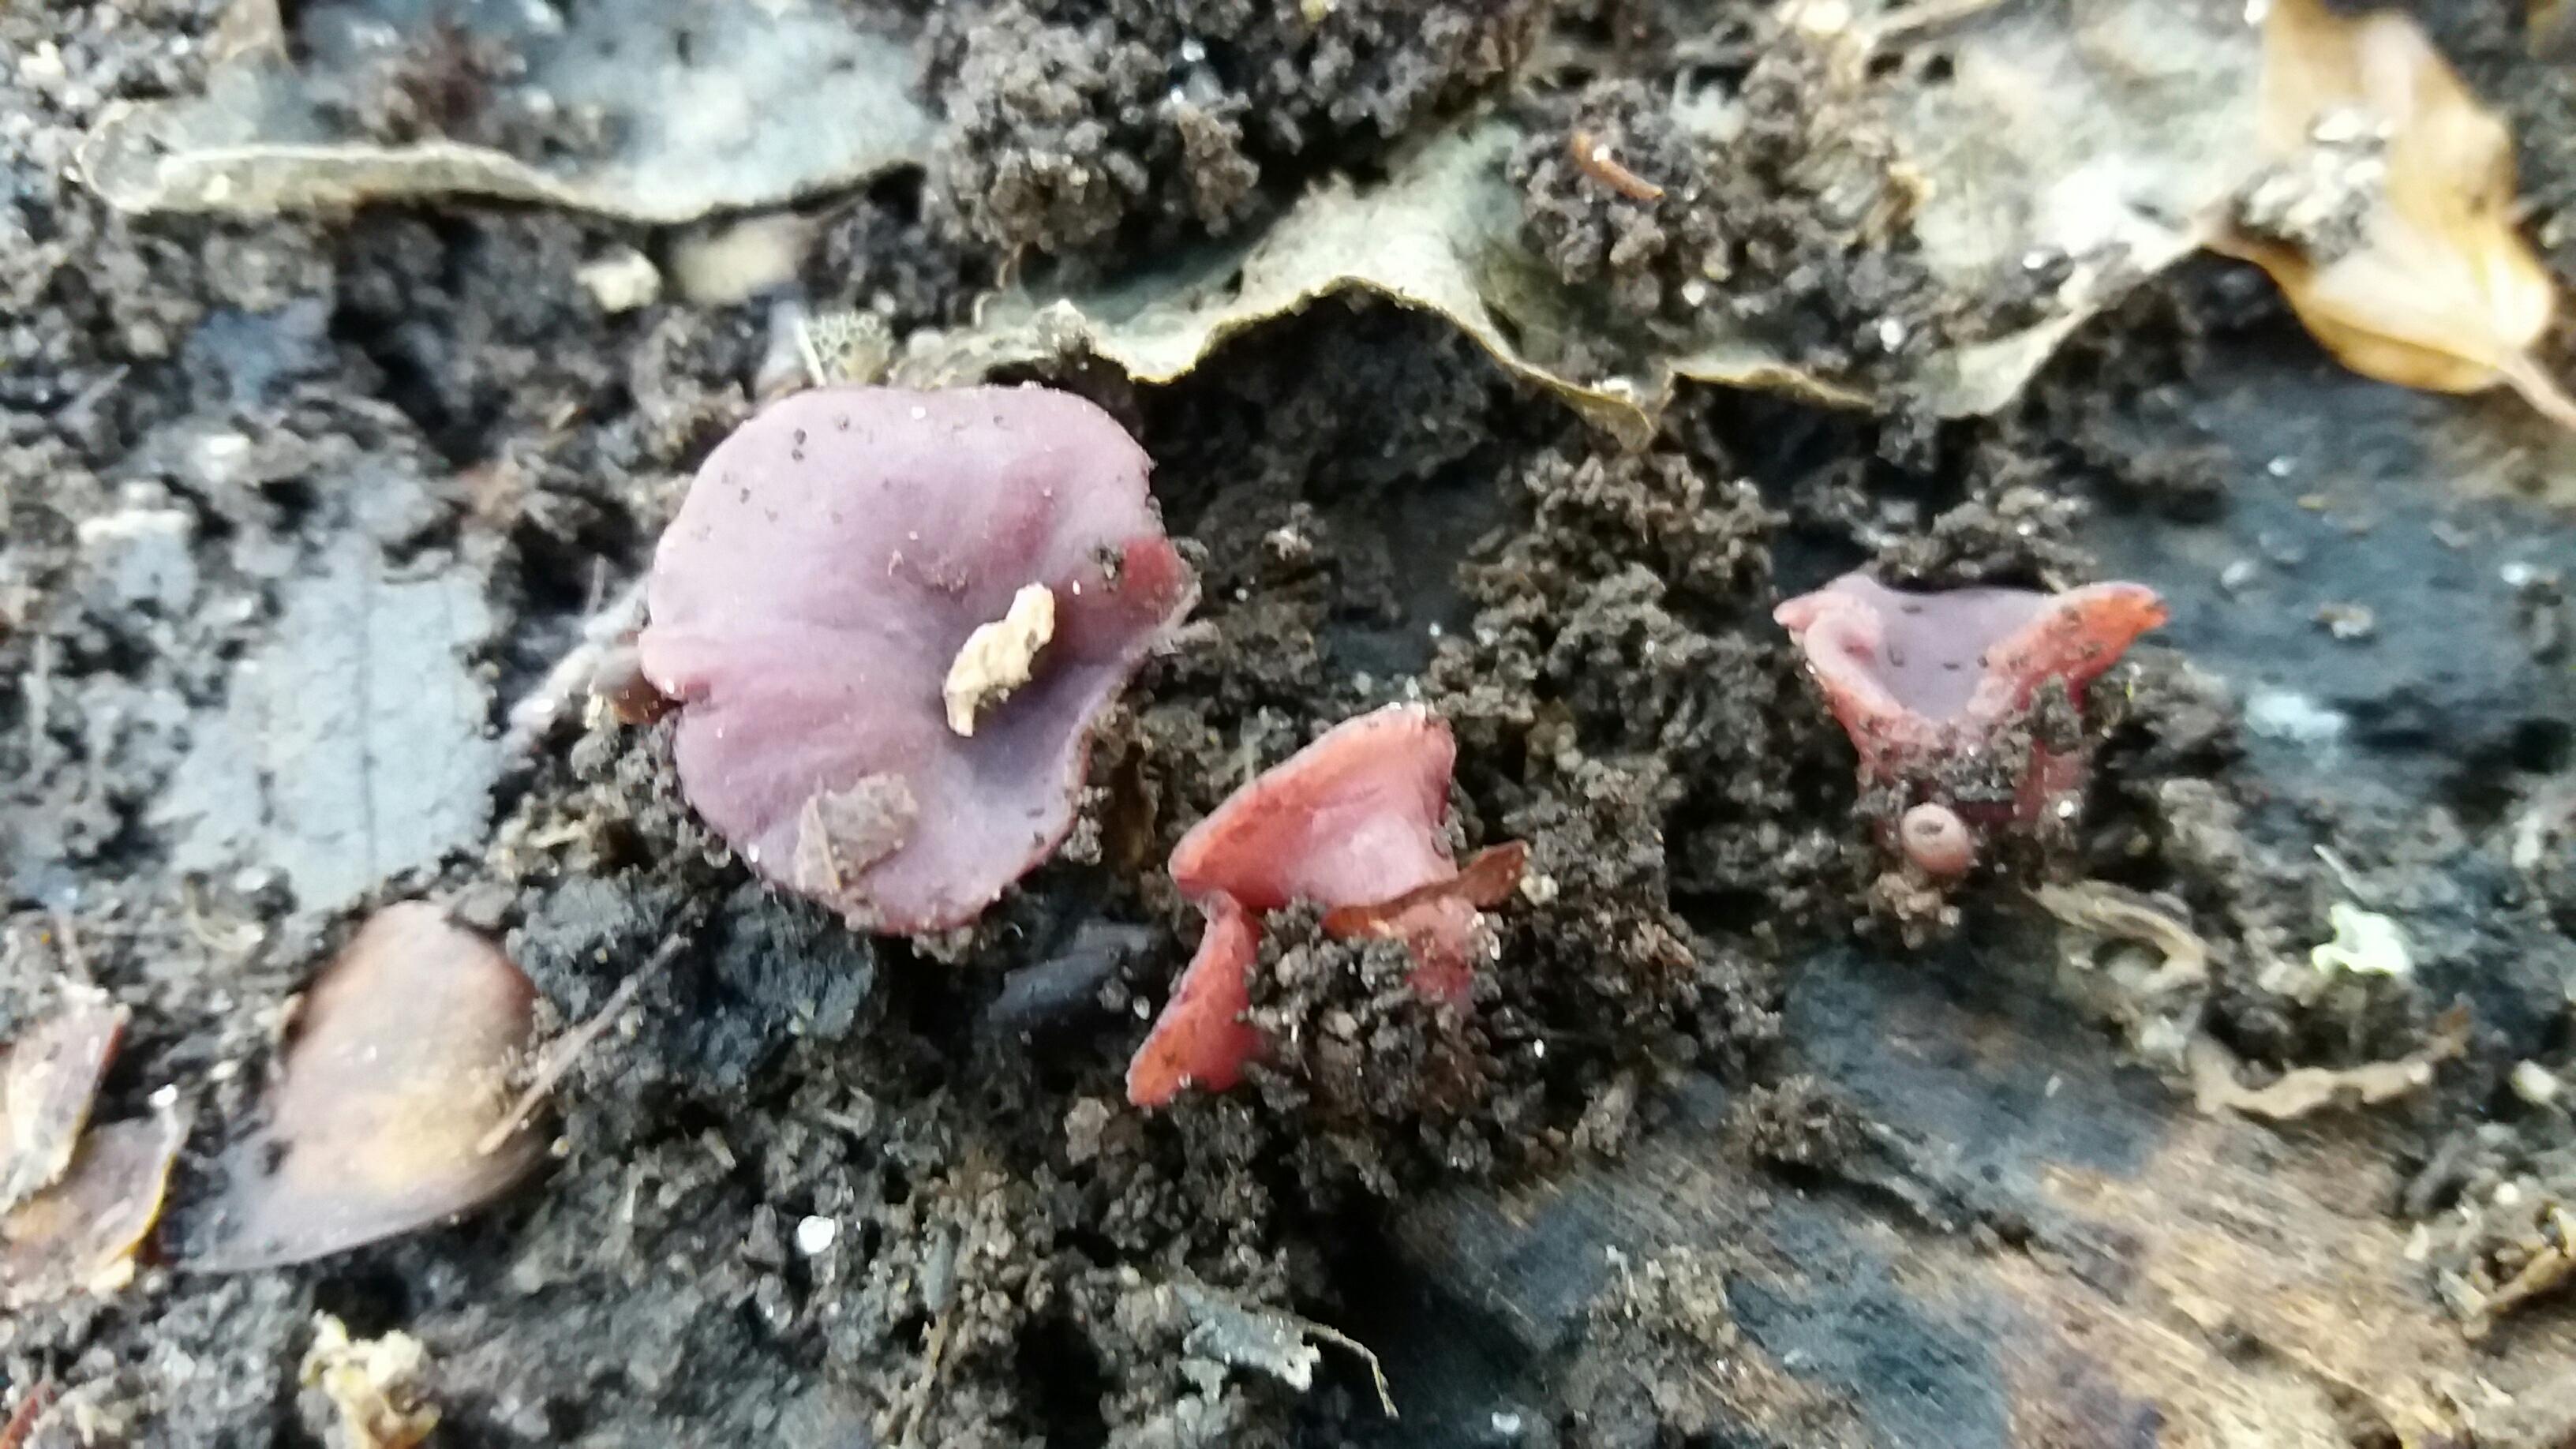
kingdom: Fungi
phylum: Ascomycota
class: Leotiomycetes
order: Helotiales
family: Gelatinodiscaceae
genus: Ascocoryne
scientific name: Ascocoryne cylichnium
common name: stor sejskive
